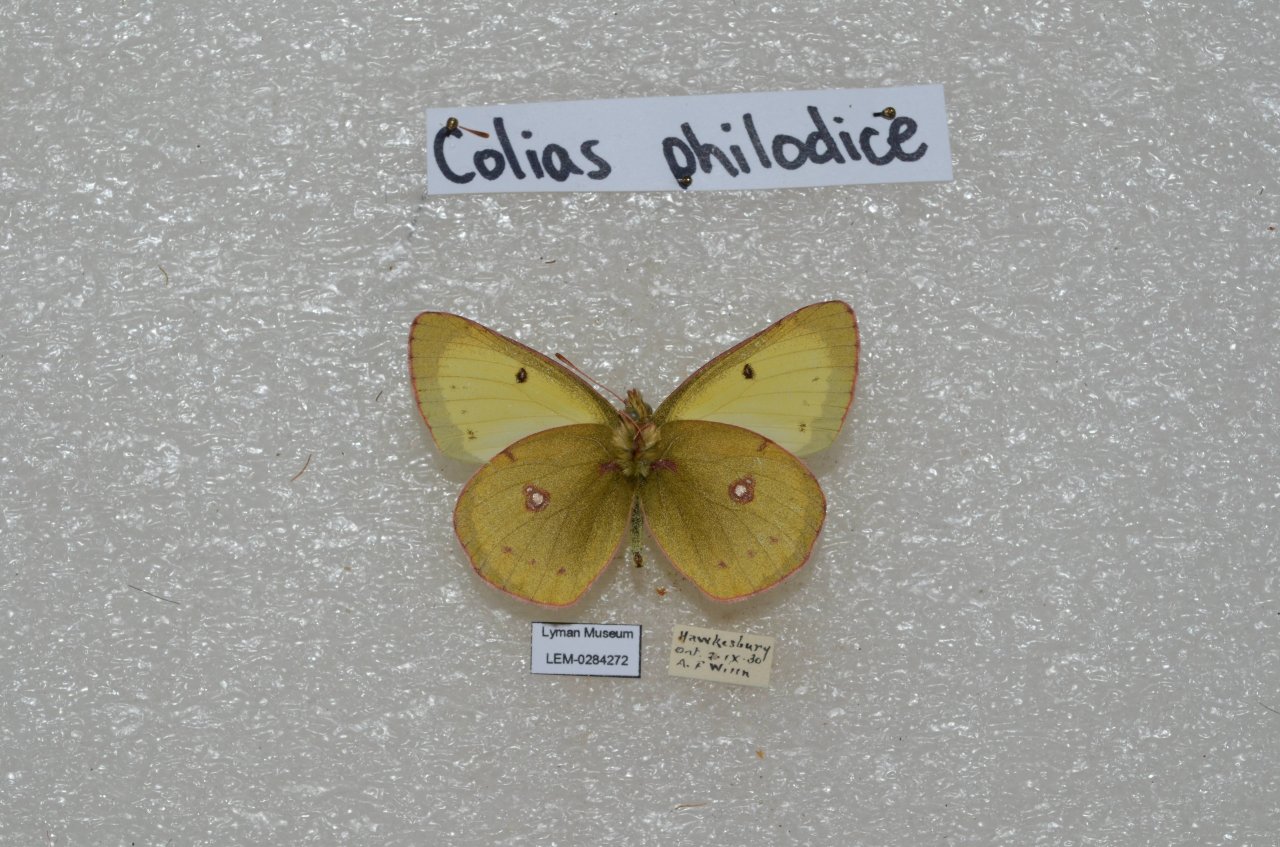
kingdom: Animalia
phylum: Arthropoda
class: Insecta
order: Lepidoptera
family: Pieridae
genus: Colias
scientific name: Colias philodice
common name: Clouded Sulphur
